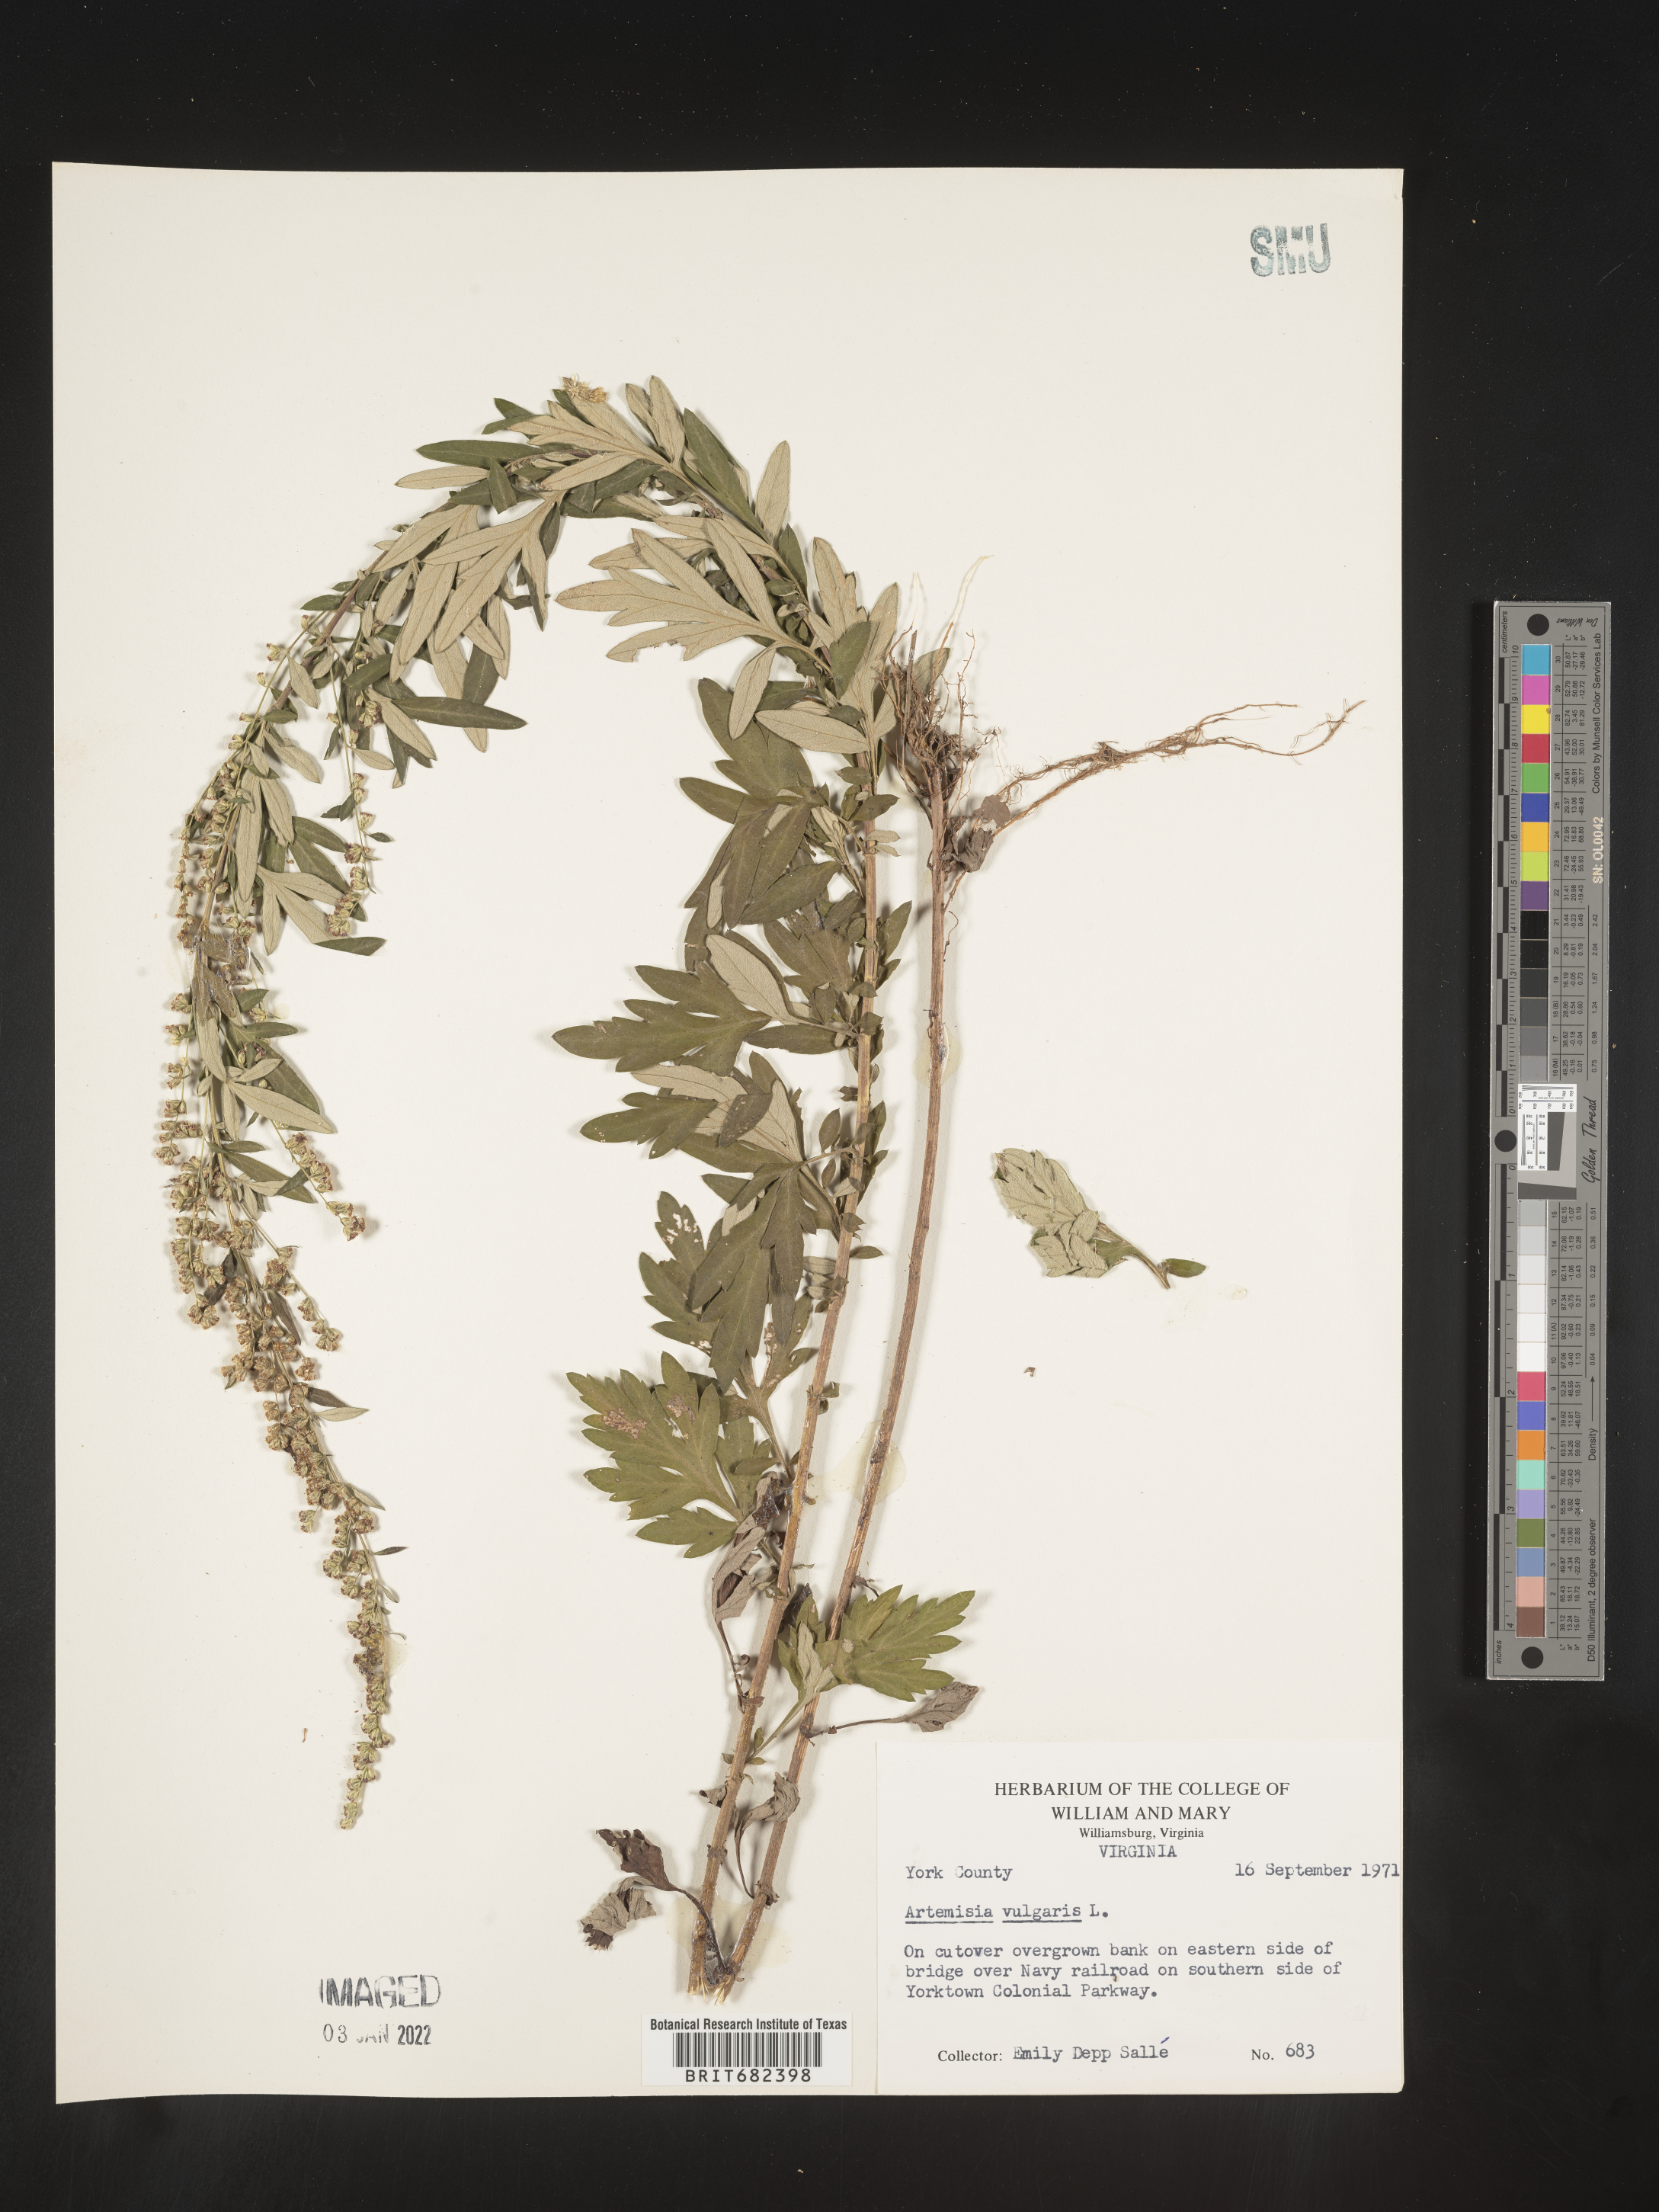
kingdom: Plantae
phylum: Tracheophyta
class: Magnoliopsida
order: Asterales
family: Asteraceae
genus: Artemisia
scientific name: Artemisia vulgaris
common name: Mugwort
